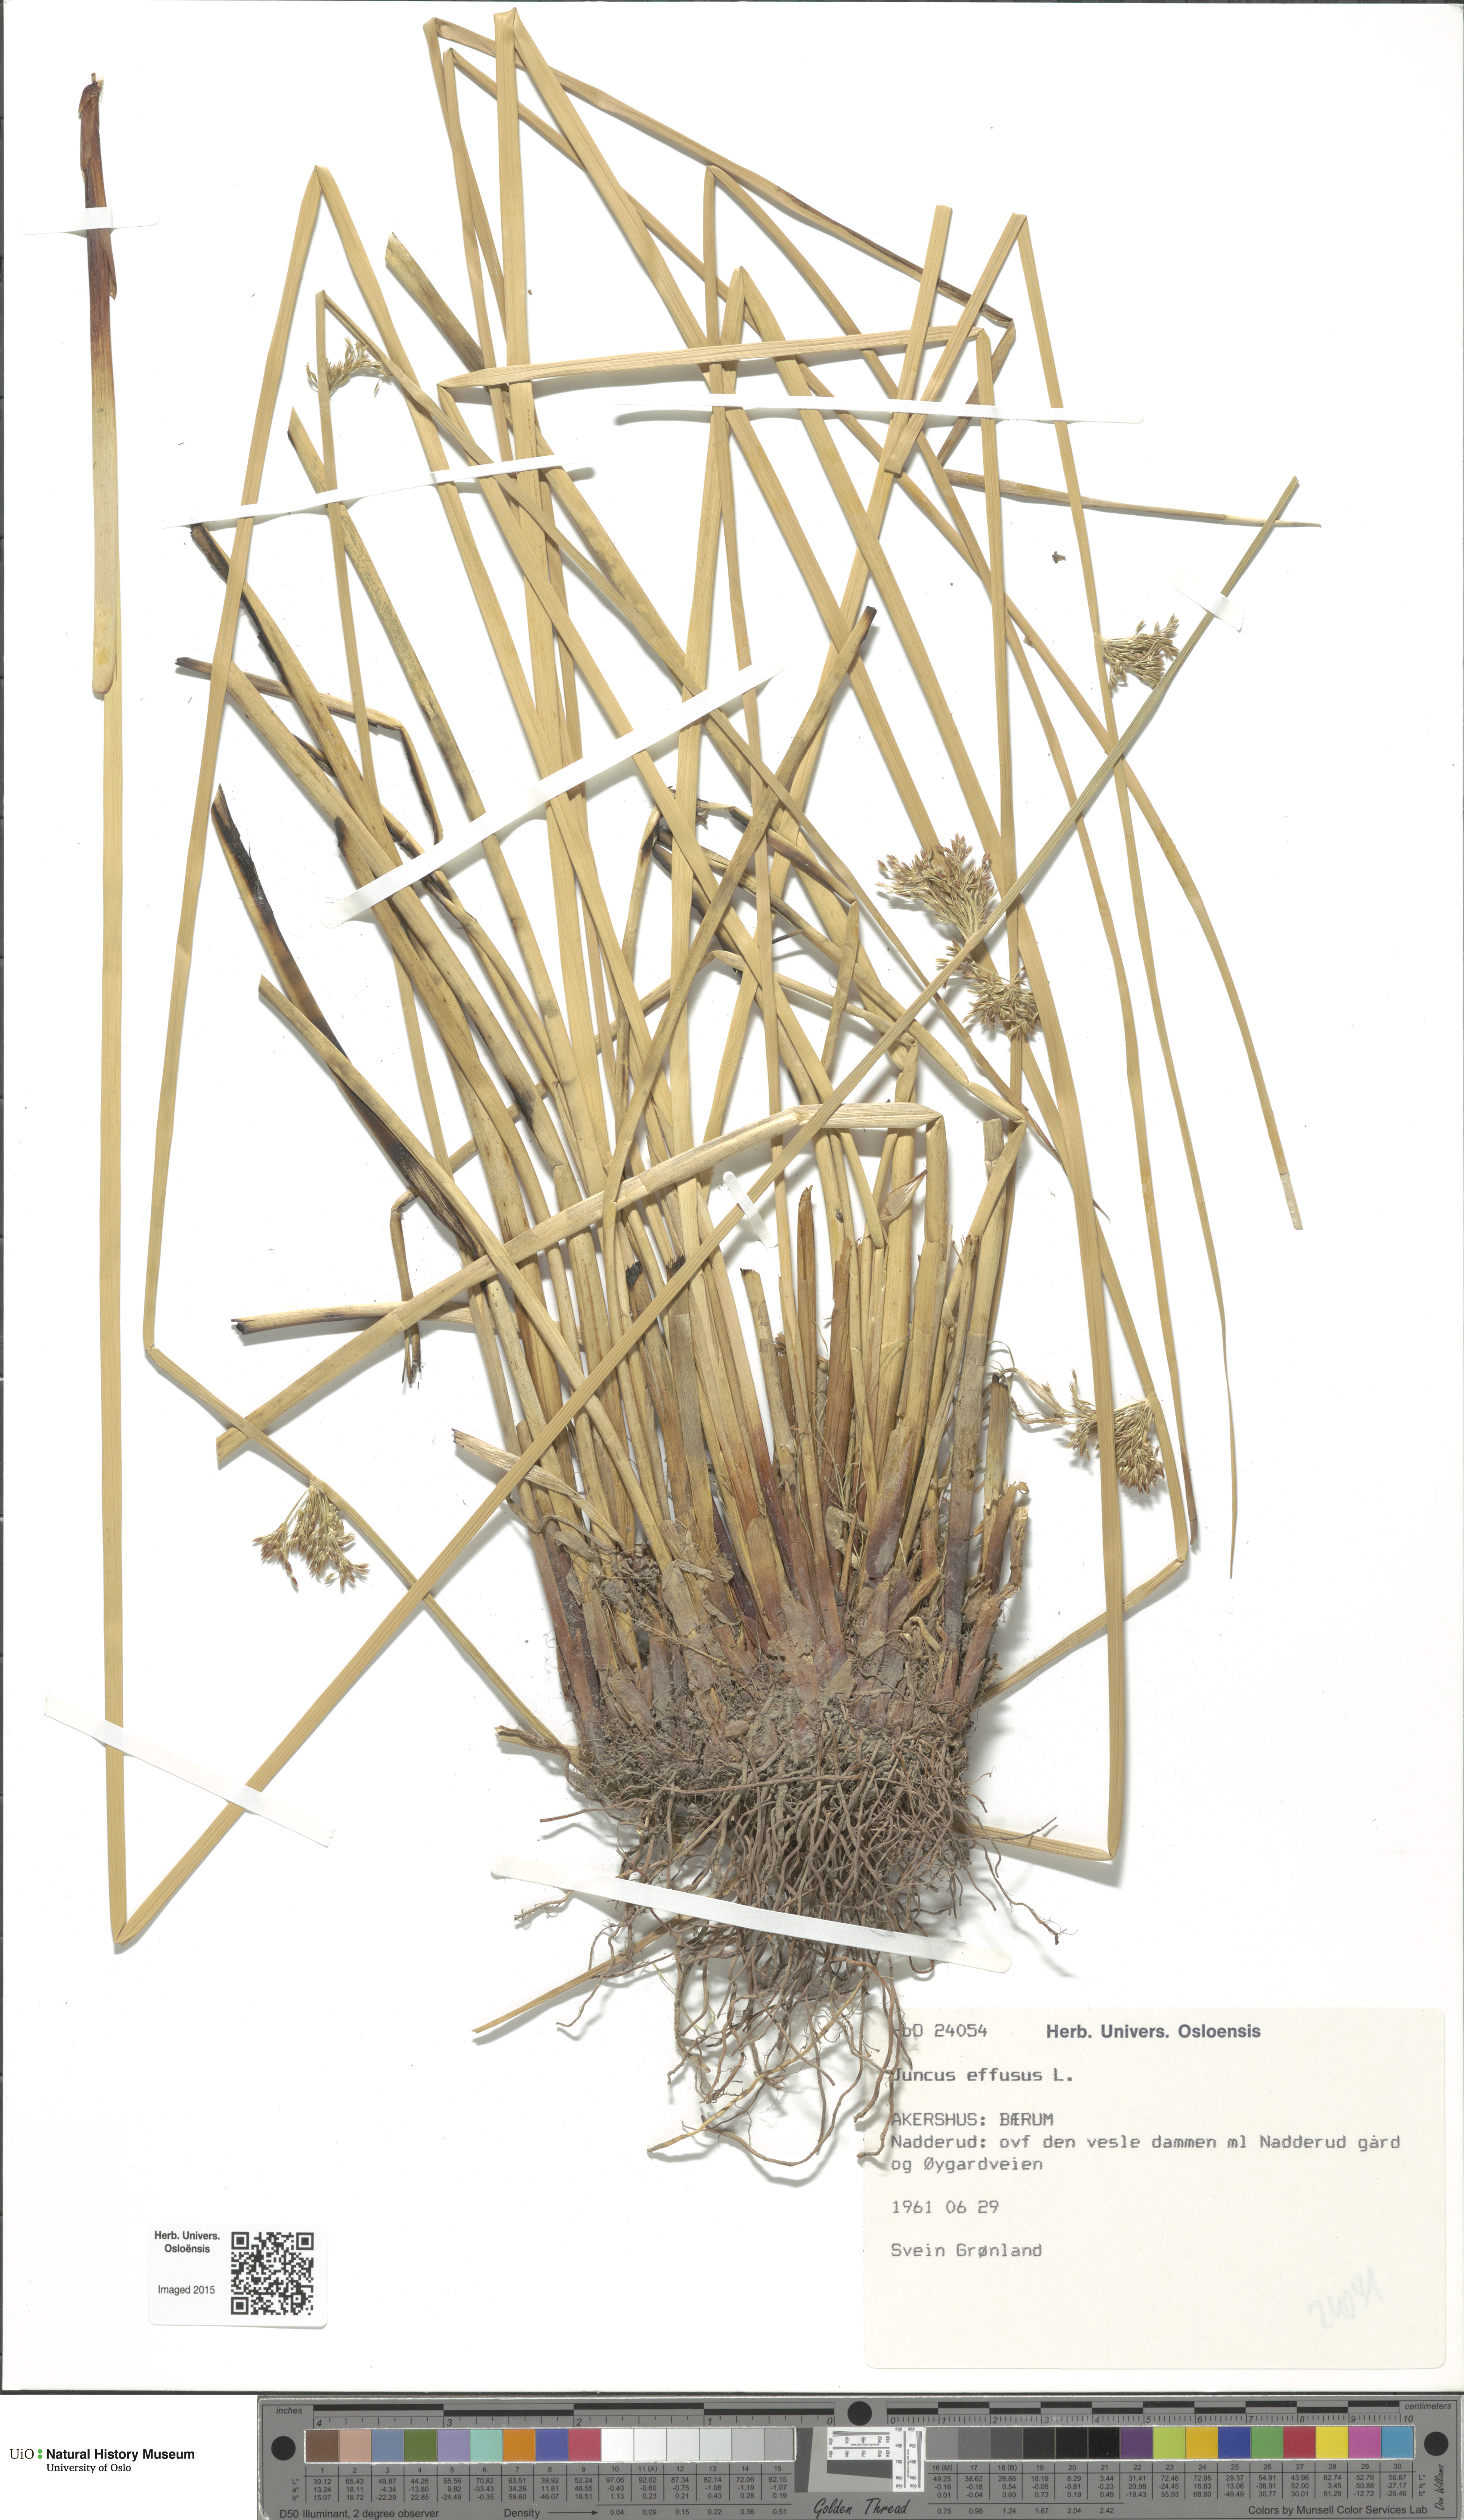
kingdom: Plantae
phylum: Tracheophyta
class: Liliopsida
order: Poales
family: Juncaceae
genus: Juncus
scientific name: Juncus effusus
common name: Soft rush
